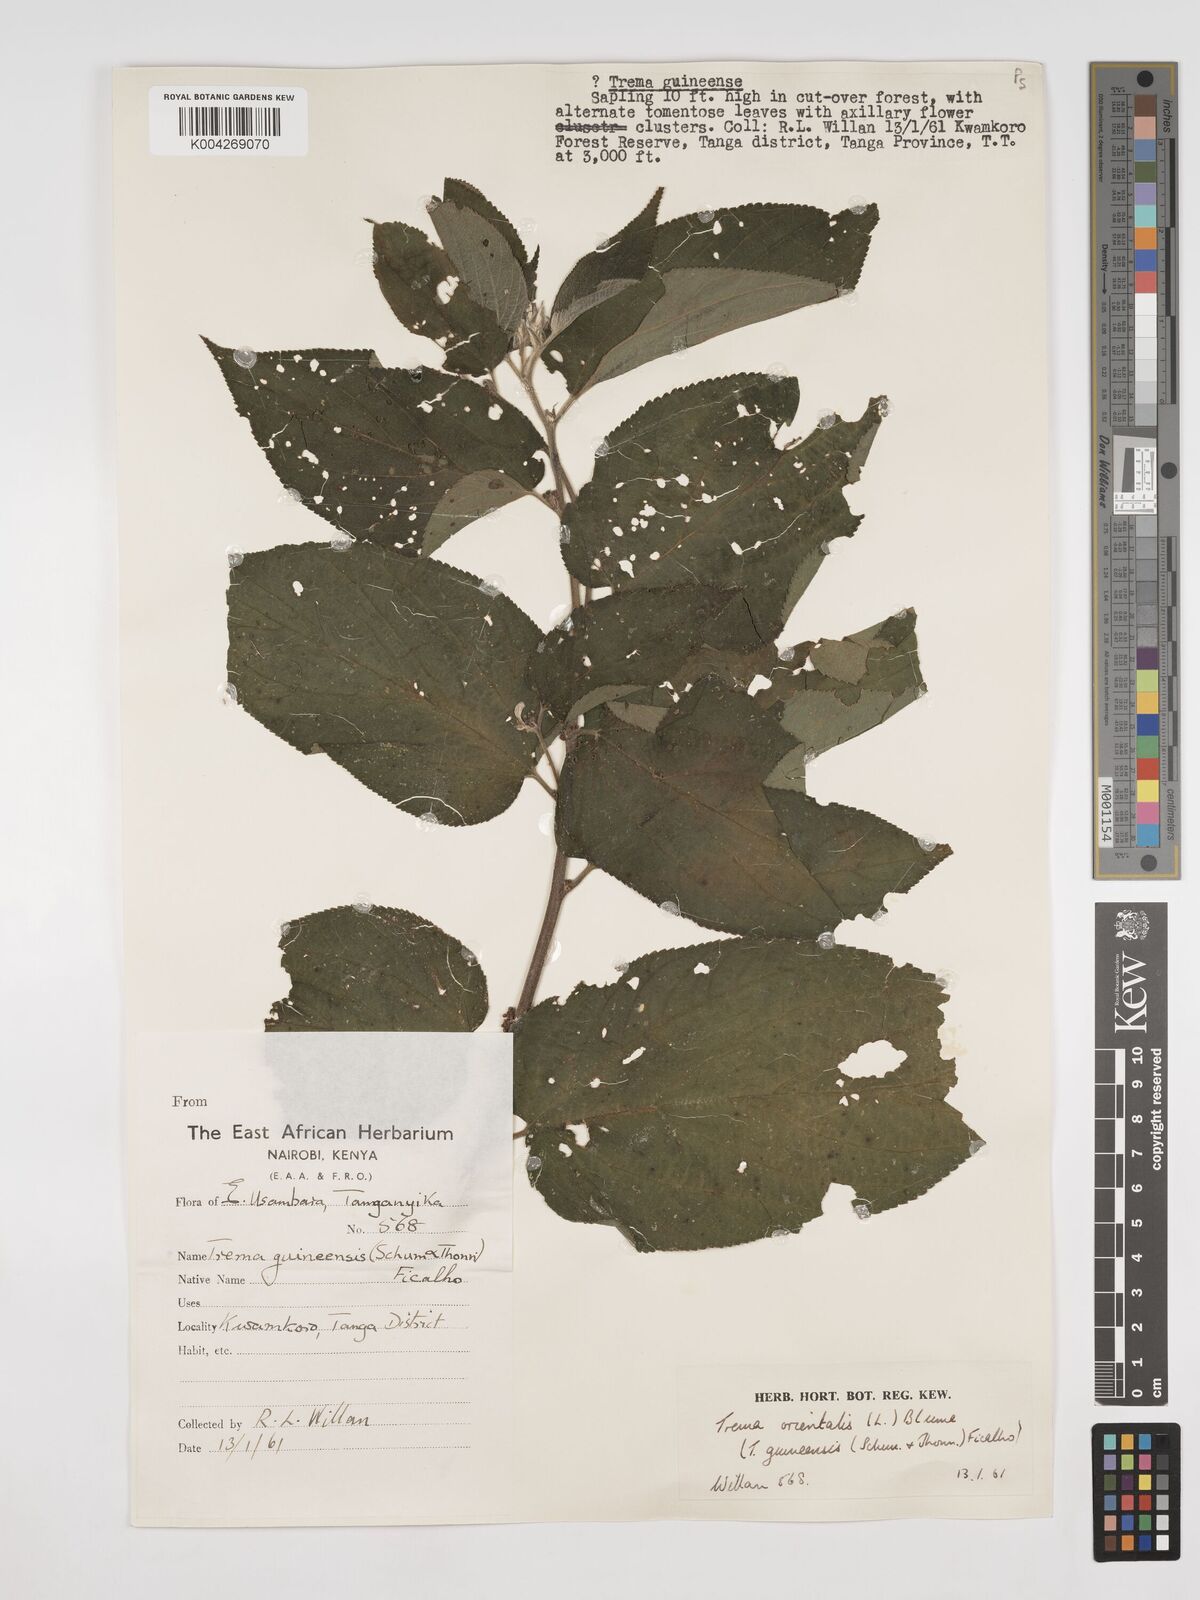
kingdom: Plantae
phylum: Tracheophyta
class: Magnoliopsida
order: Rosales
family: Cannabaceae
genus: Trema
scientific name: Trema orientale
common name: Indian charcoal tree
